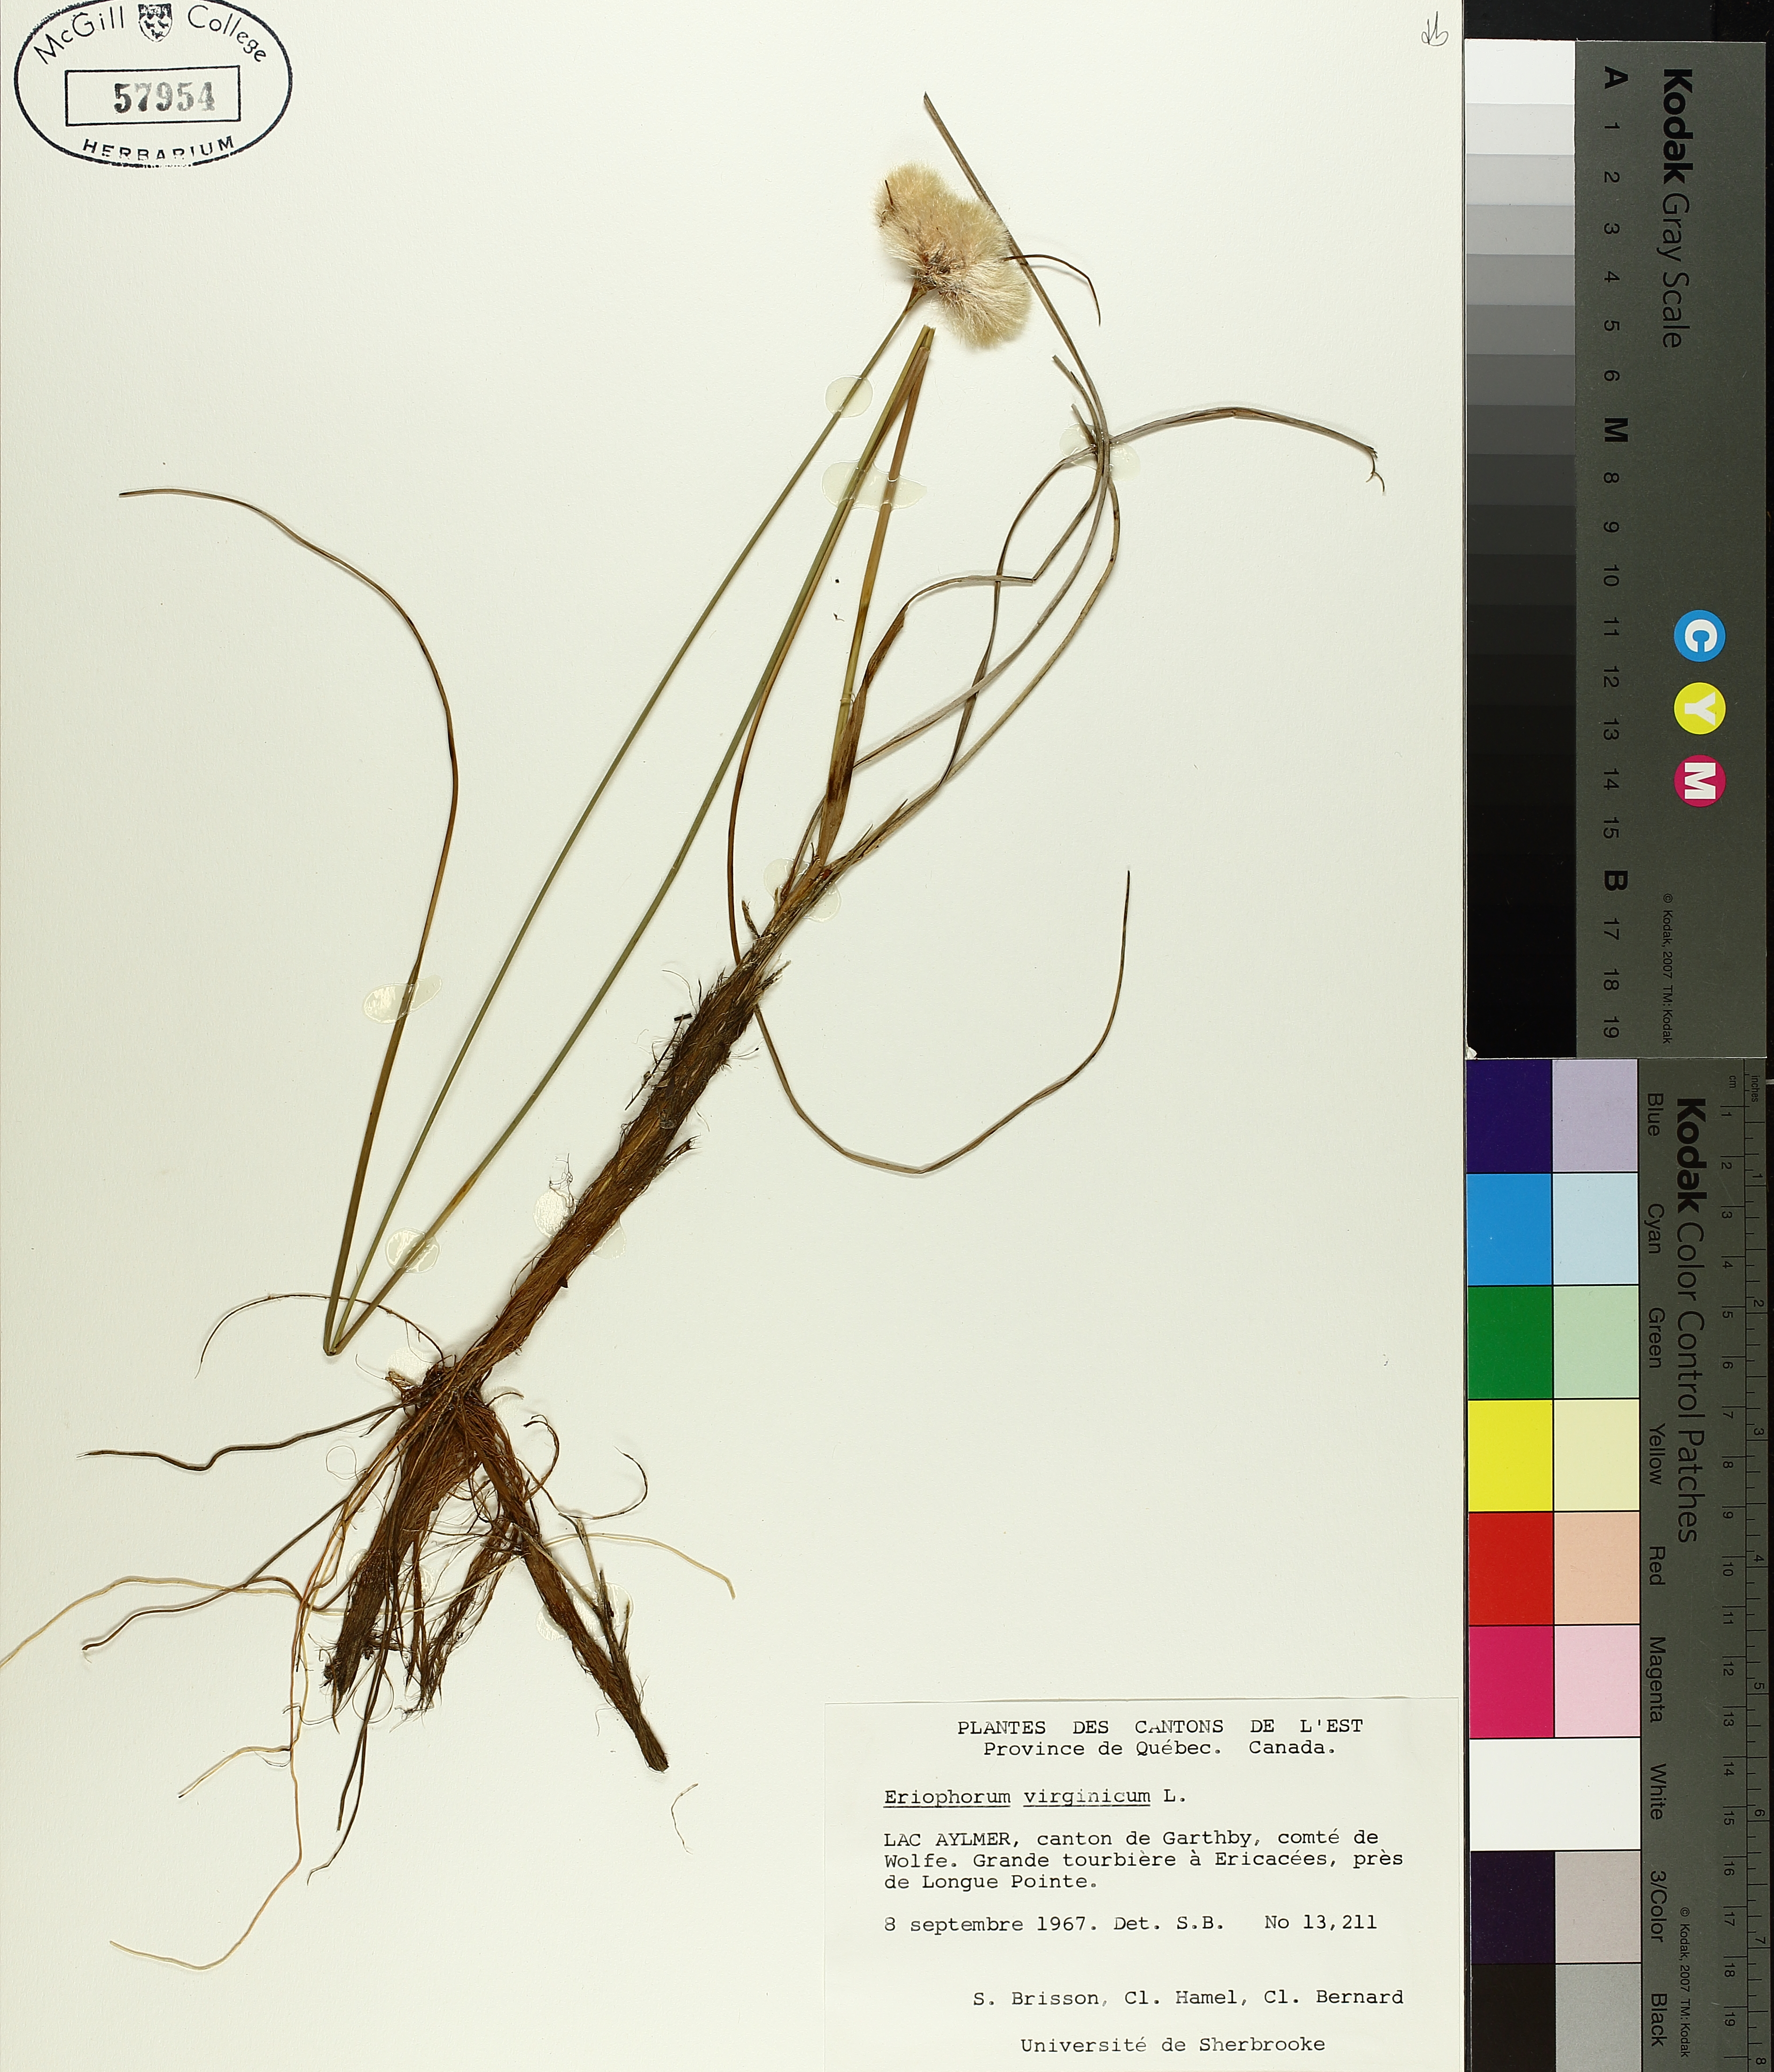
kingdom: Plantae
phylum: Tracheophyta
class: Liliopsida
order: Poales
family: Cyperaceae
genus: Eriophorum
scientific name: Eriophorum virginicum
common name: Tawny cottongrass
